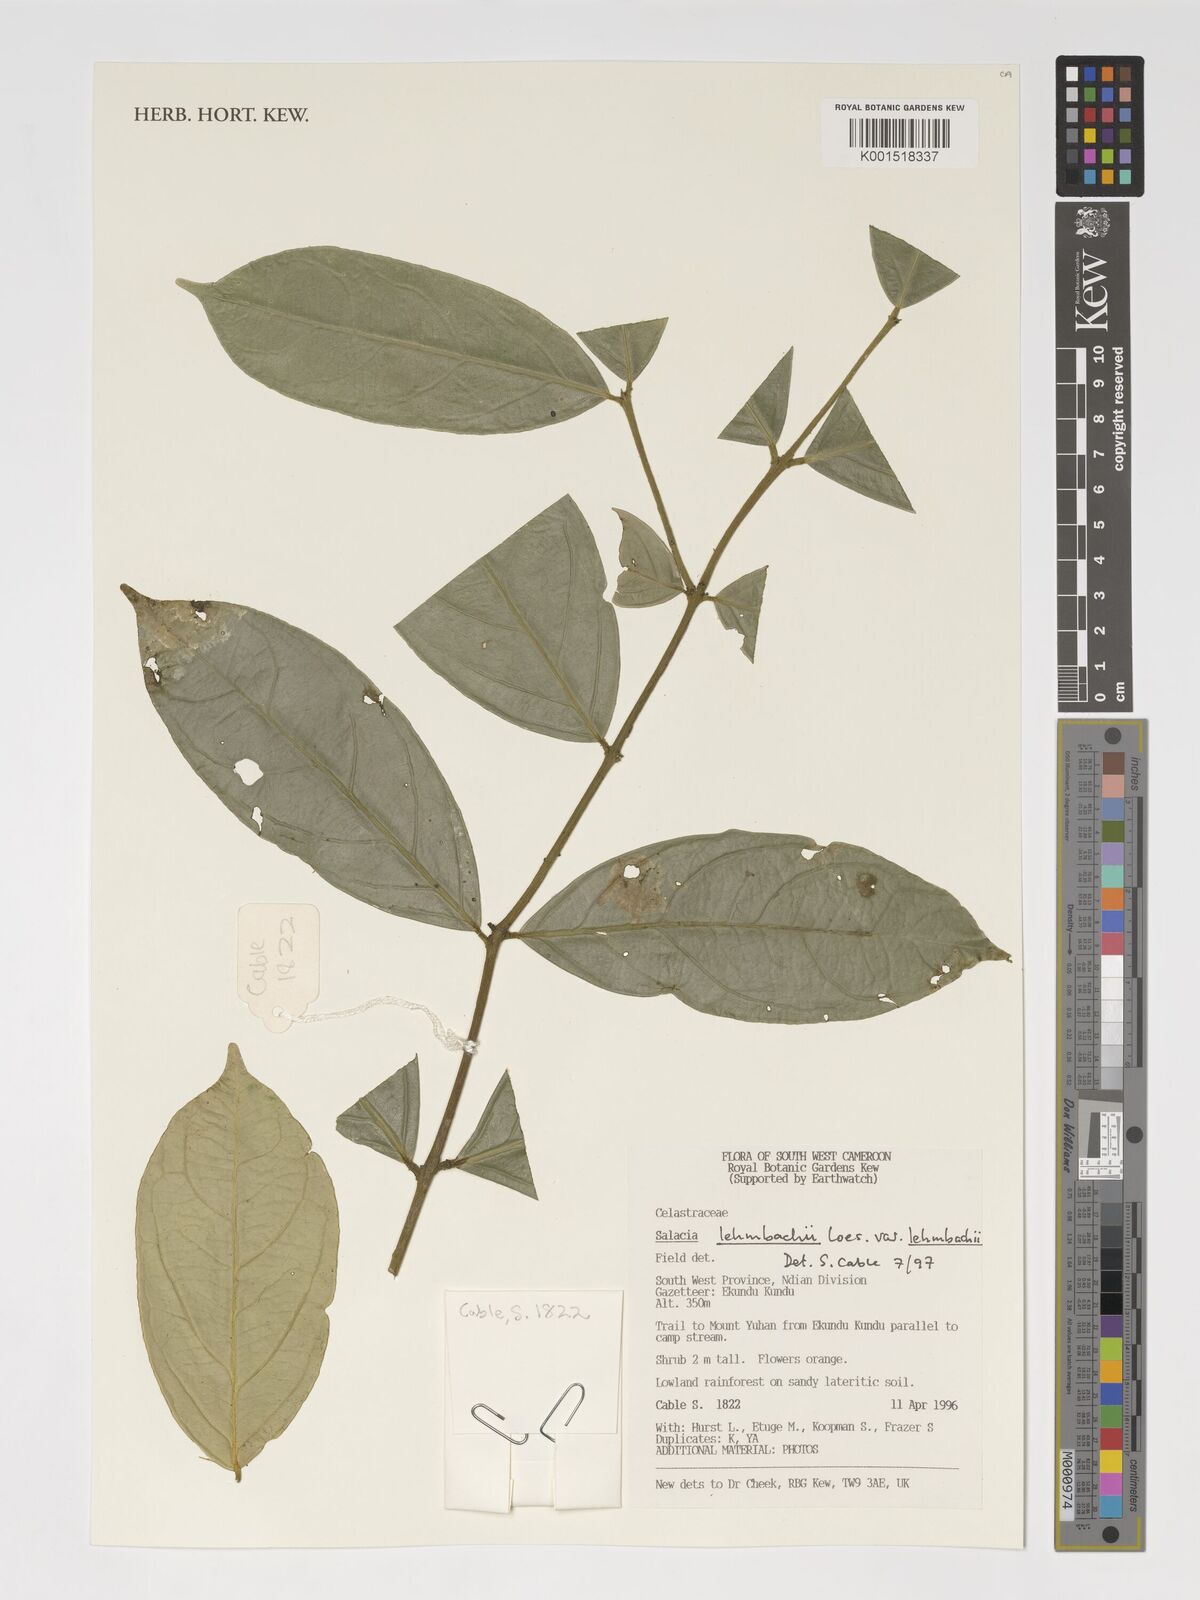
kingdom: Plantae
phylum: Tracheophyta
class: Magnoliopsida
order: Celastrales
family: Celastraceae
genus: Salacia
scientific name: Salacia lehmbachii
